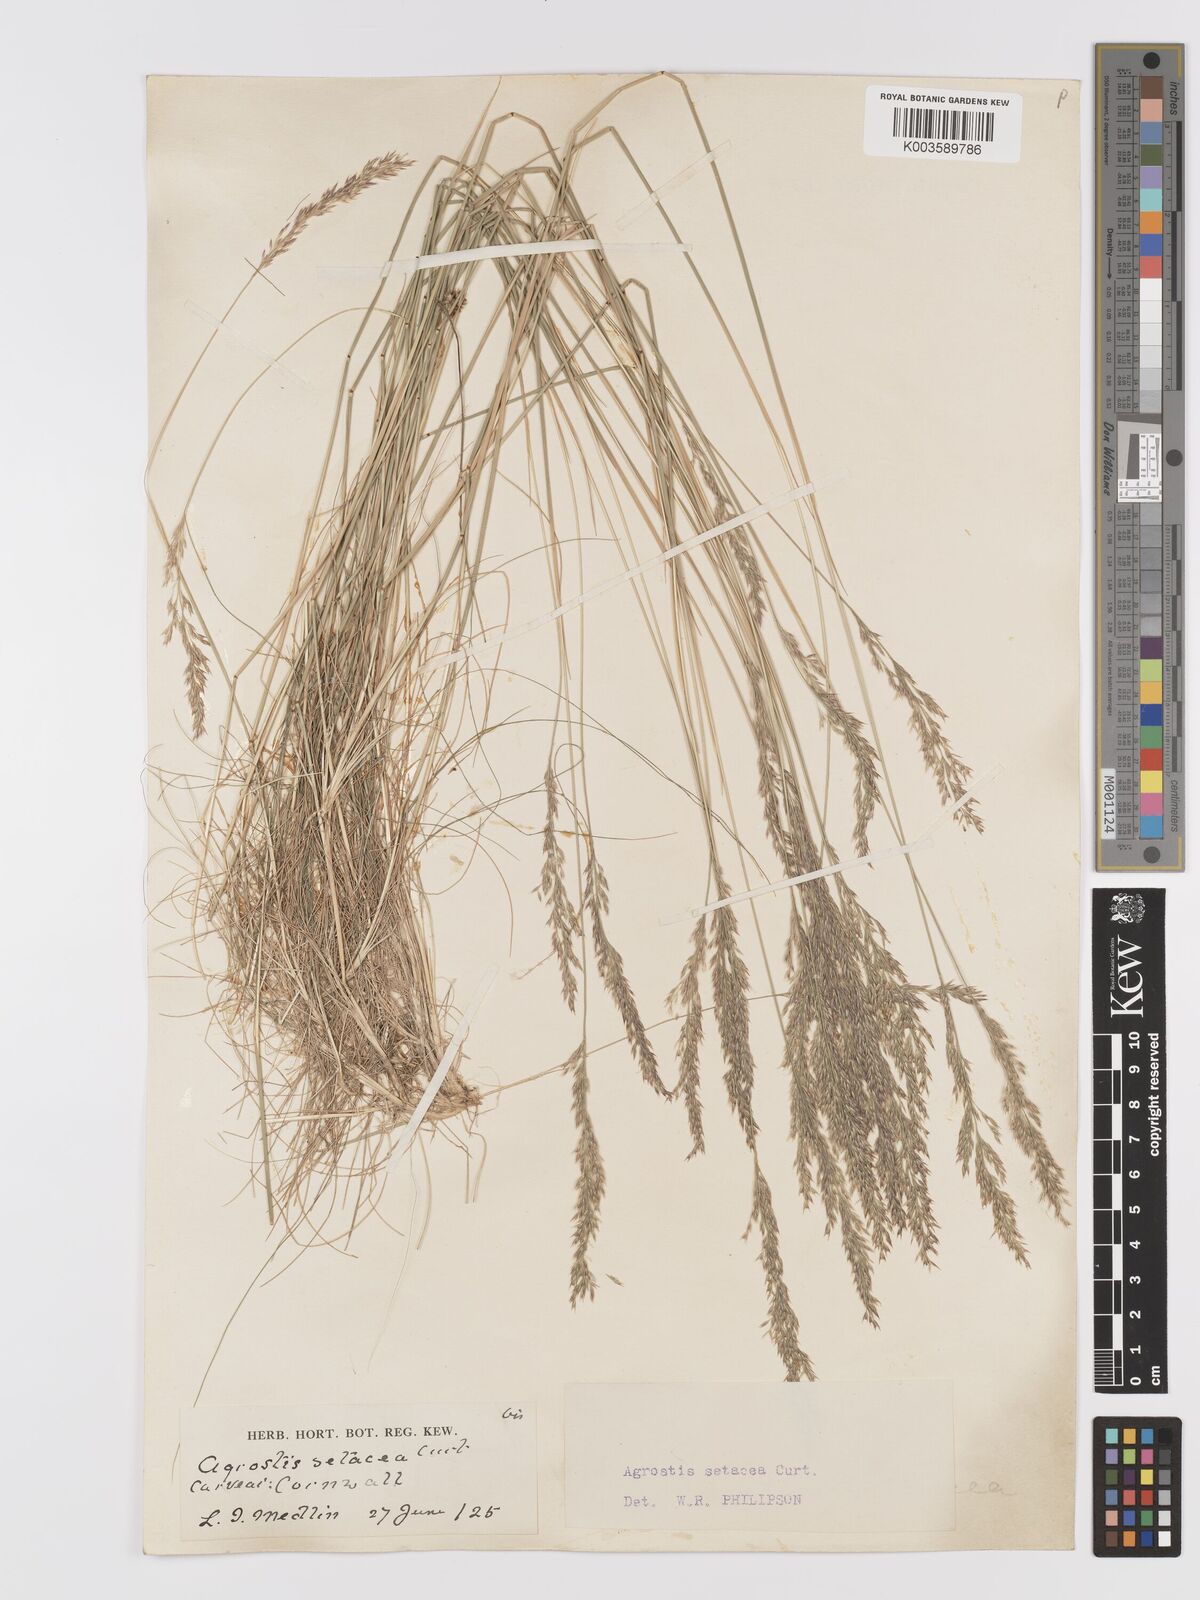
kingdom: Plantae
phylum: Tracheophyta
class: Liliopsida
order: Poales
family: Poaceae
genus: Alpagrostis
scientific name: Alpagrostis setacea
